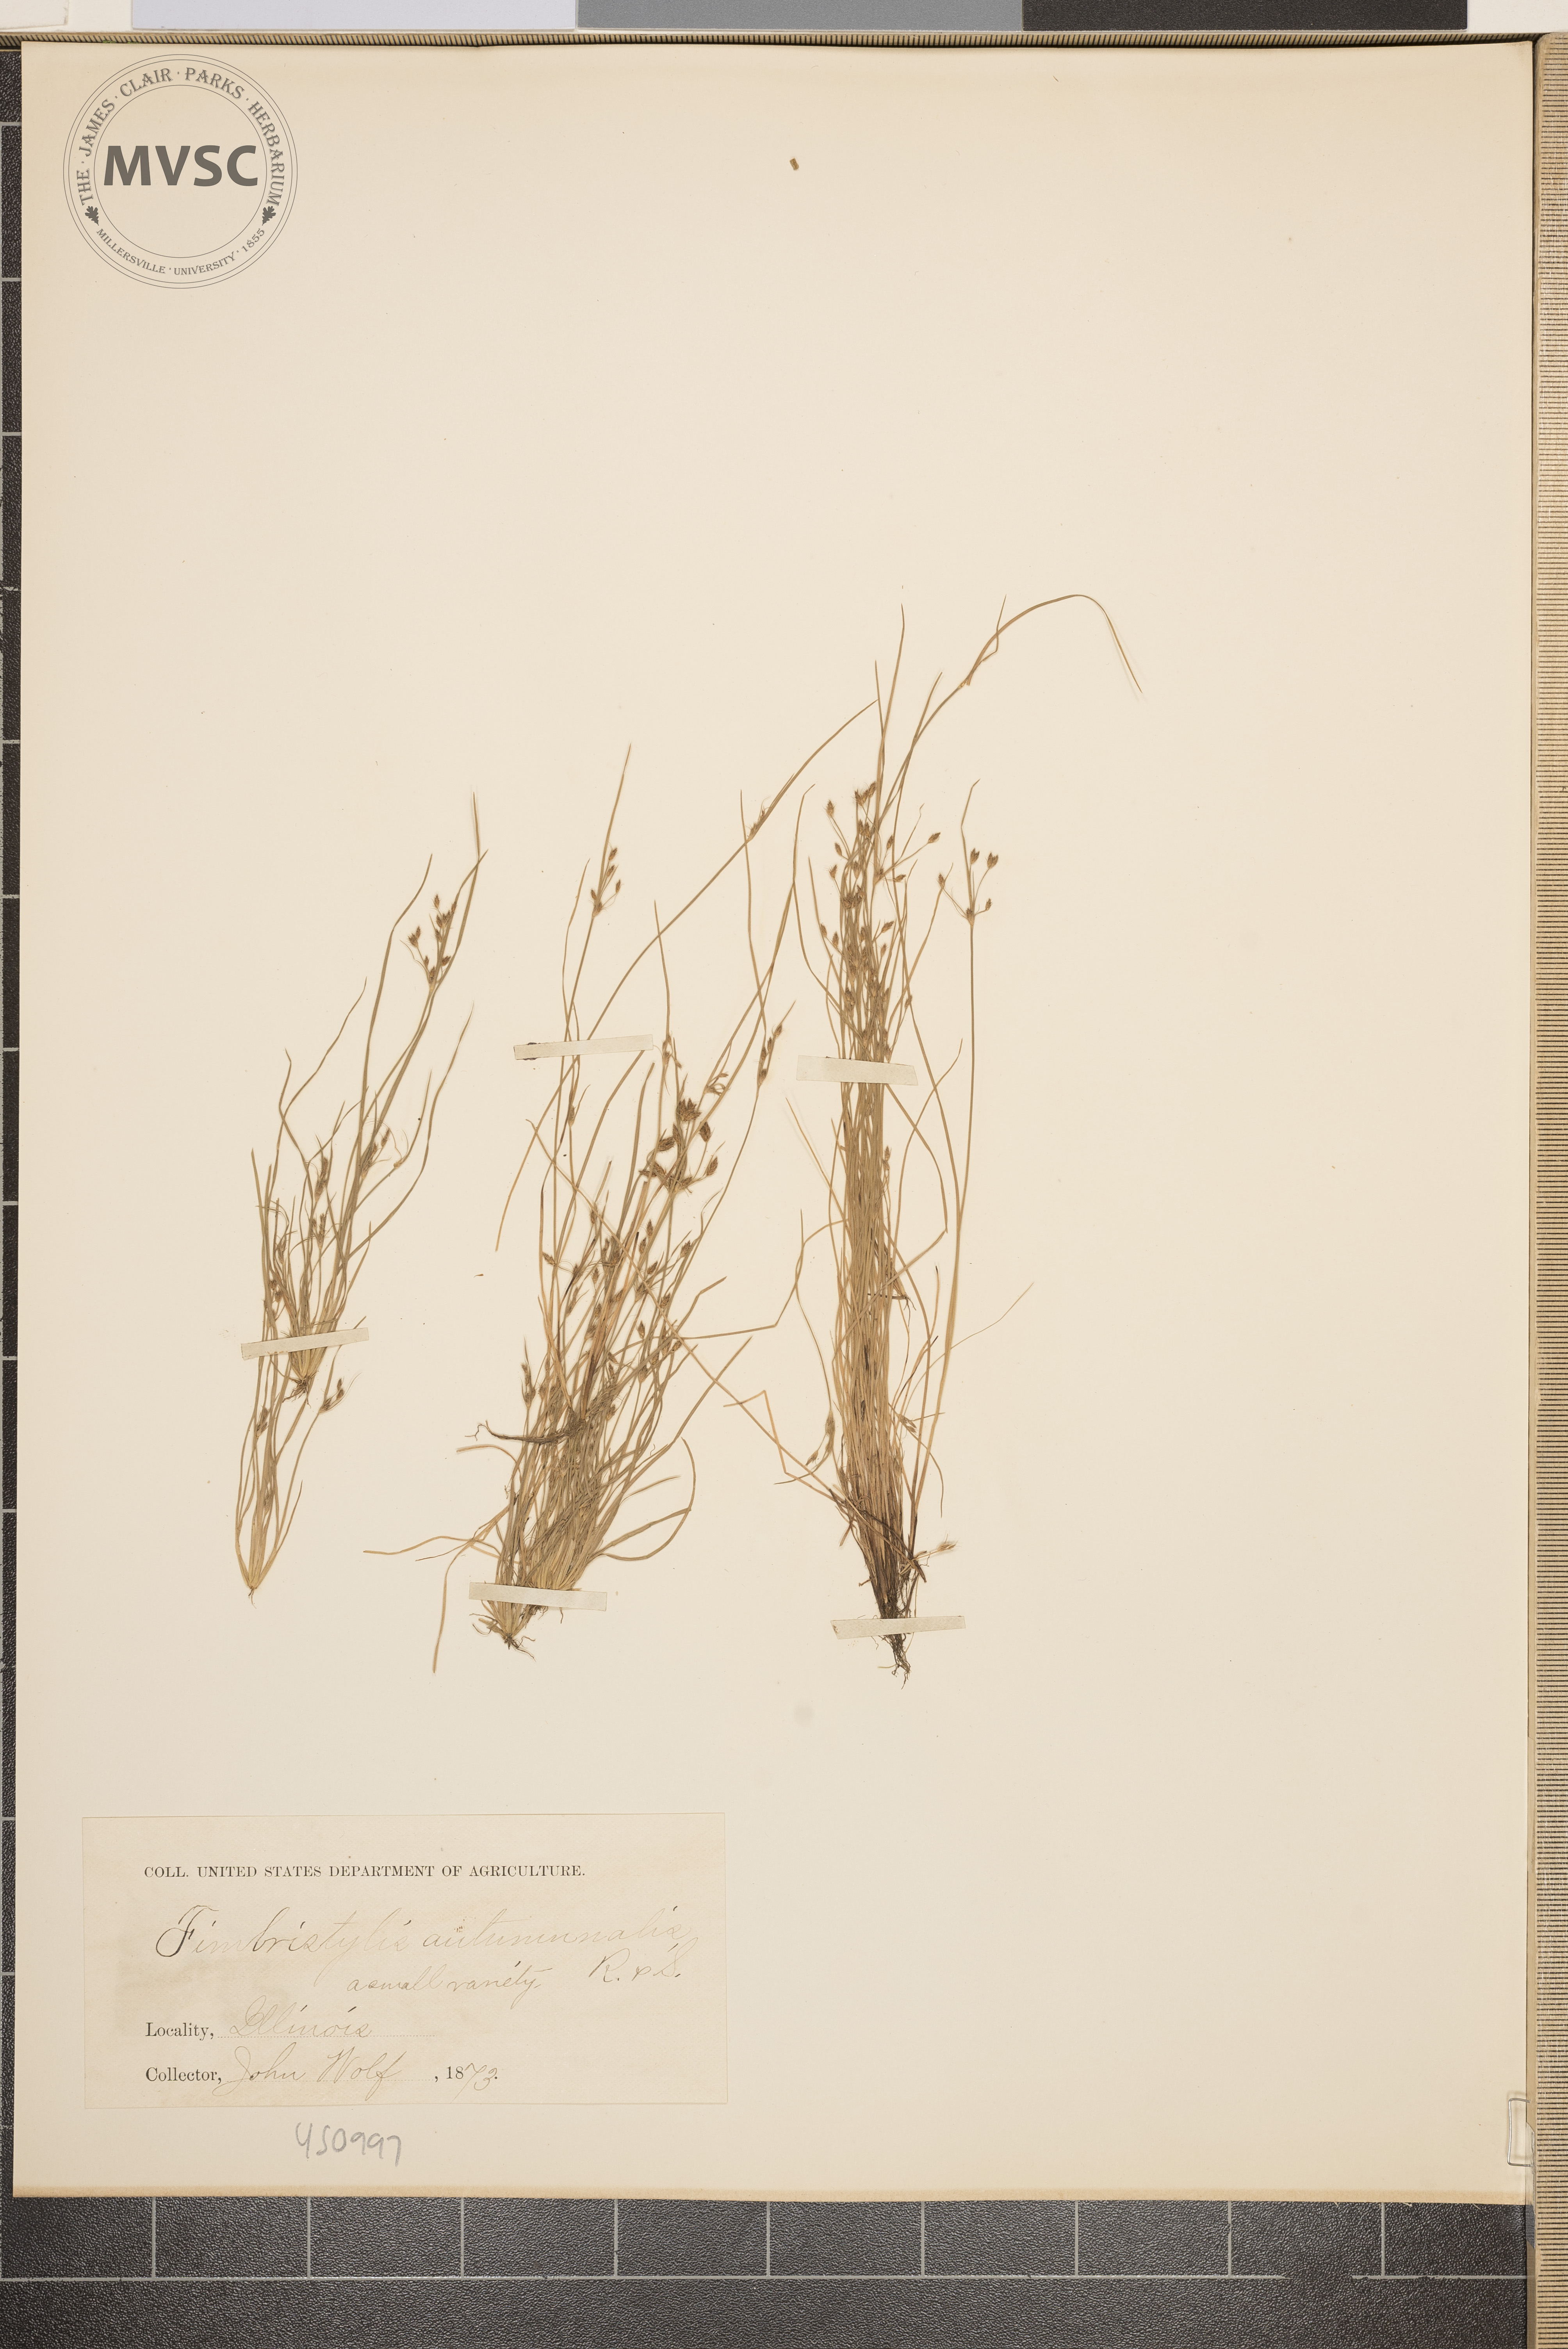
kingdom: Plantae
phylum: Tracheophyta
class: Liliopsida
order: Poales
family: Cyperaceae
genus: Fimbristylis
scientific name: Fimbristylis autumnalis
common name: Slender fimbristylis
